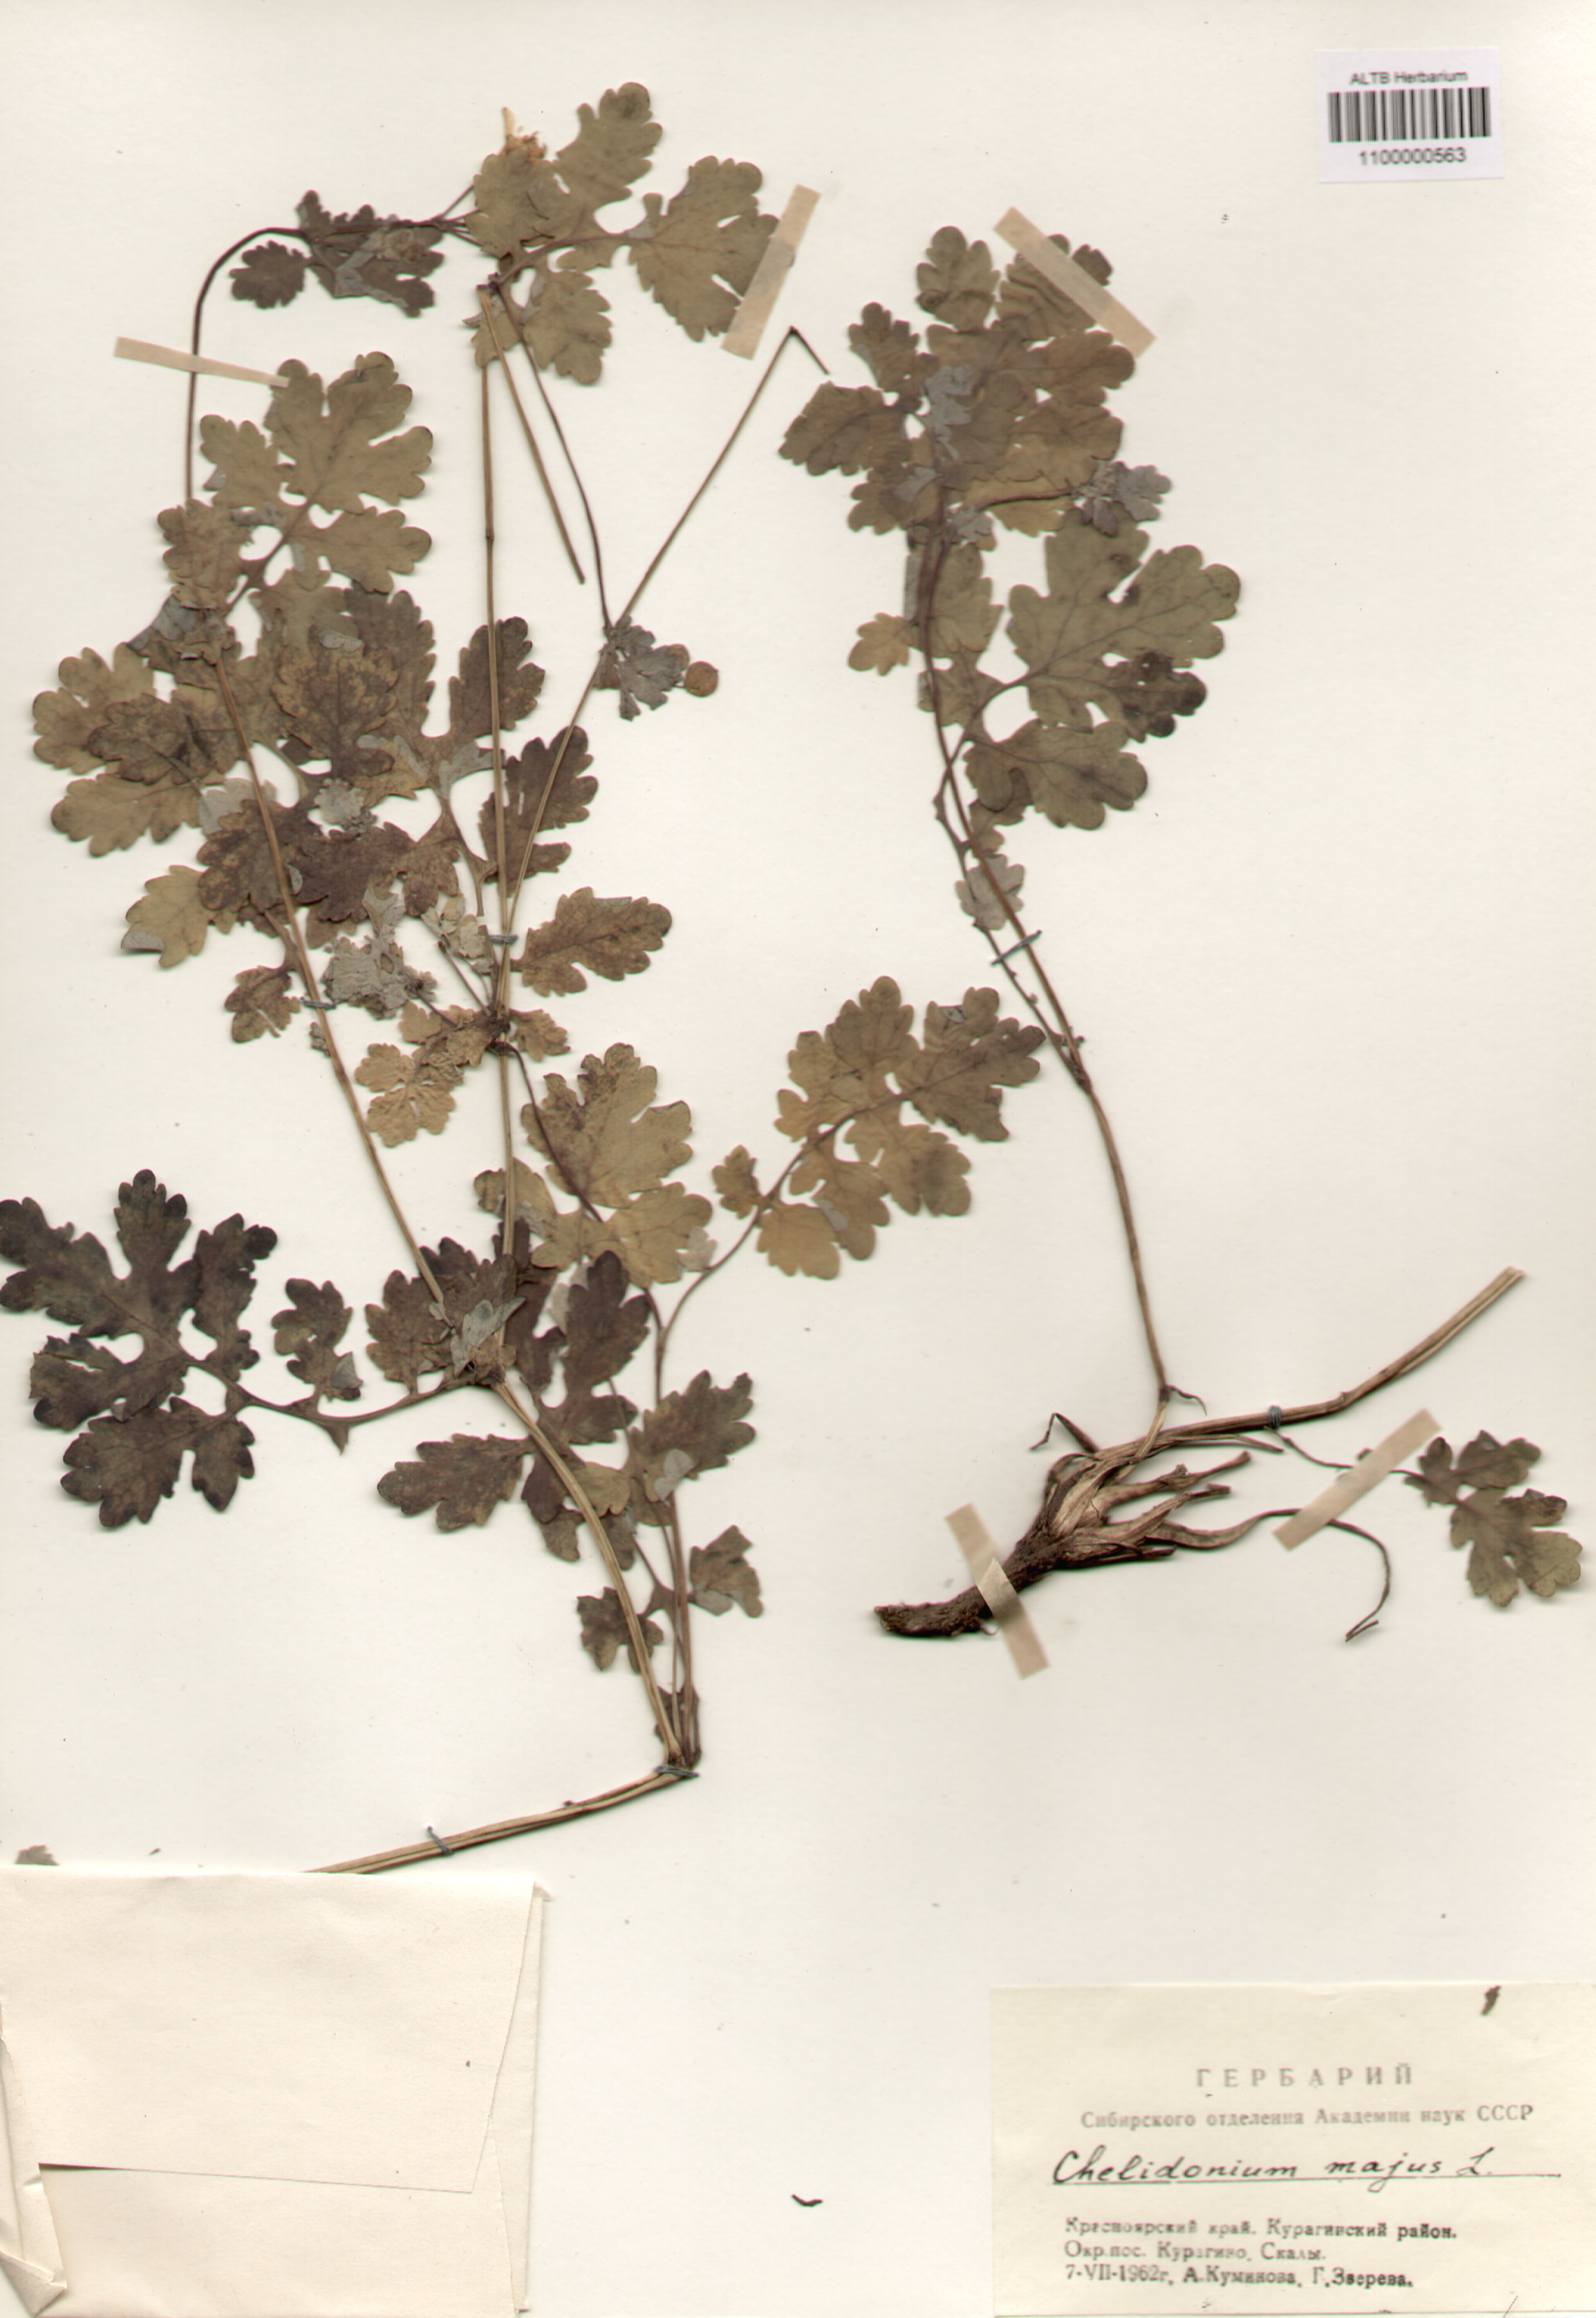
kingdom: Plantae
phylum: Tracheophyta
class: Magnoliopsida
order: Ranunculales
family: Papaveraceae
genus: Chelidonium
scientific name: Chelidonium majus
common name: Greater celandine
